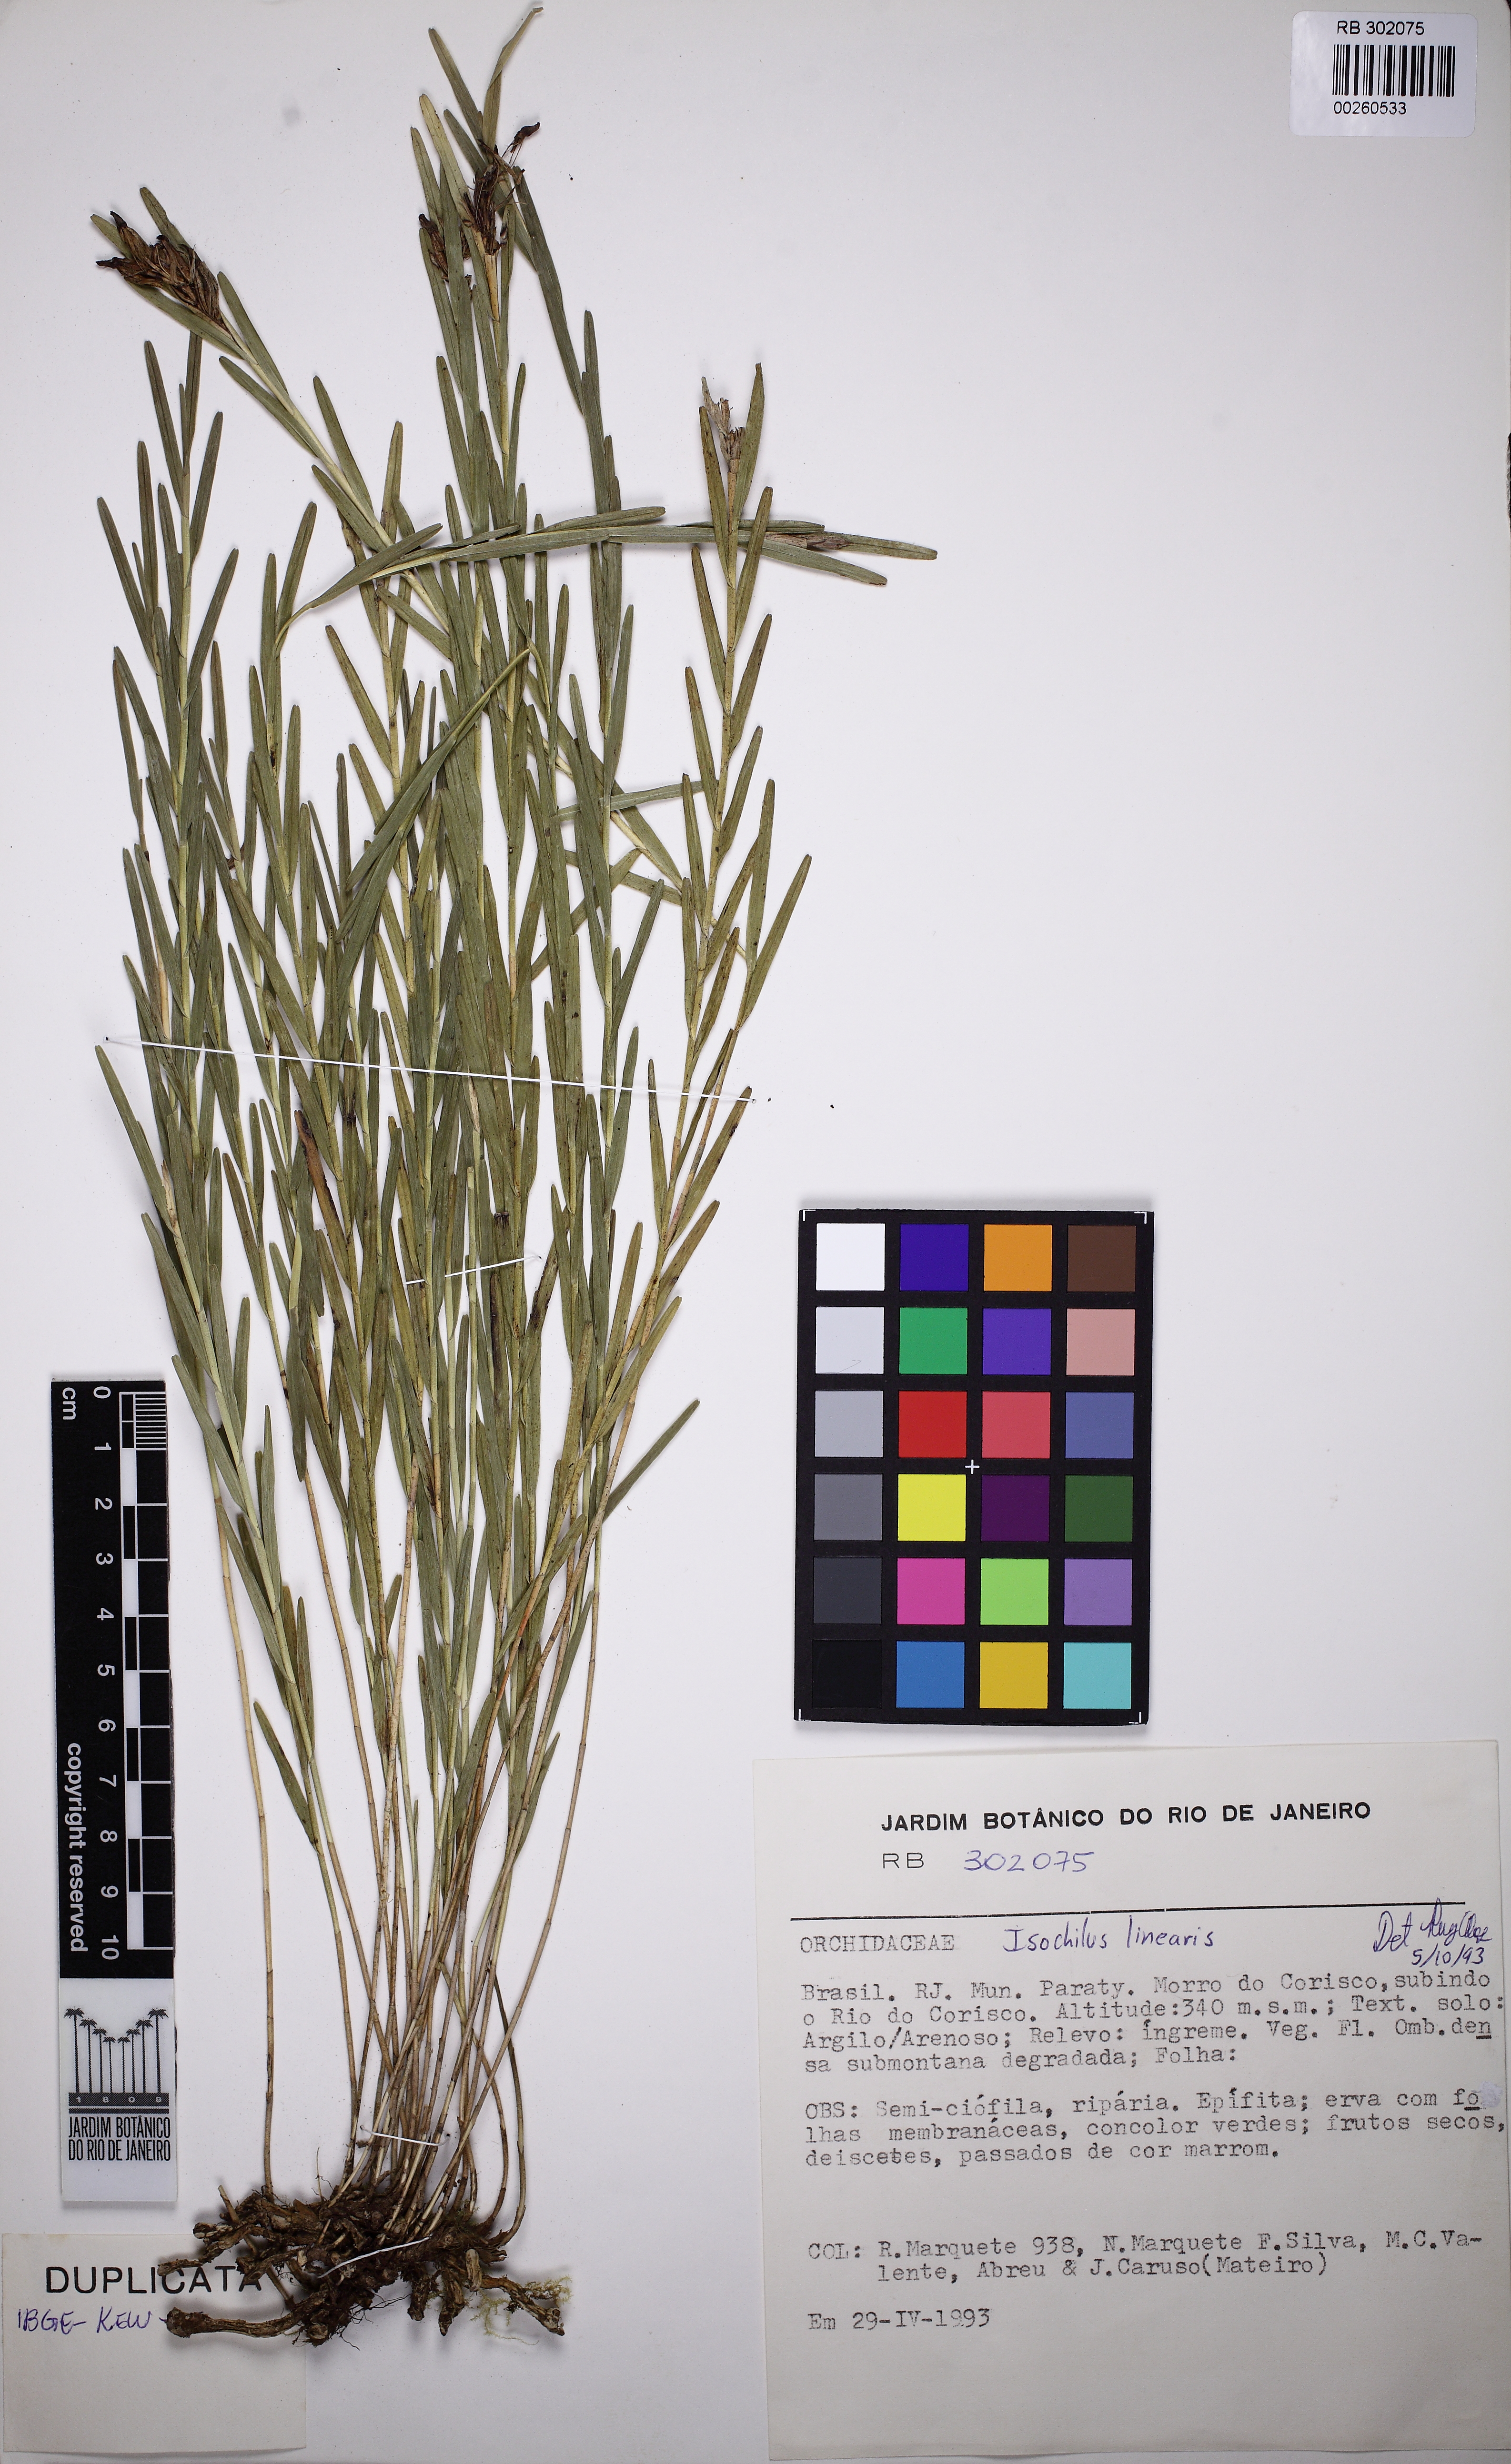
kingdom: Plantae
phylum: Tracheophyta
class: Liliopsida
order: Asparagales
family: Orchidaceae
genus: Isochilus
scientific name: Isochilus linearis
